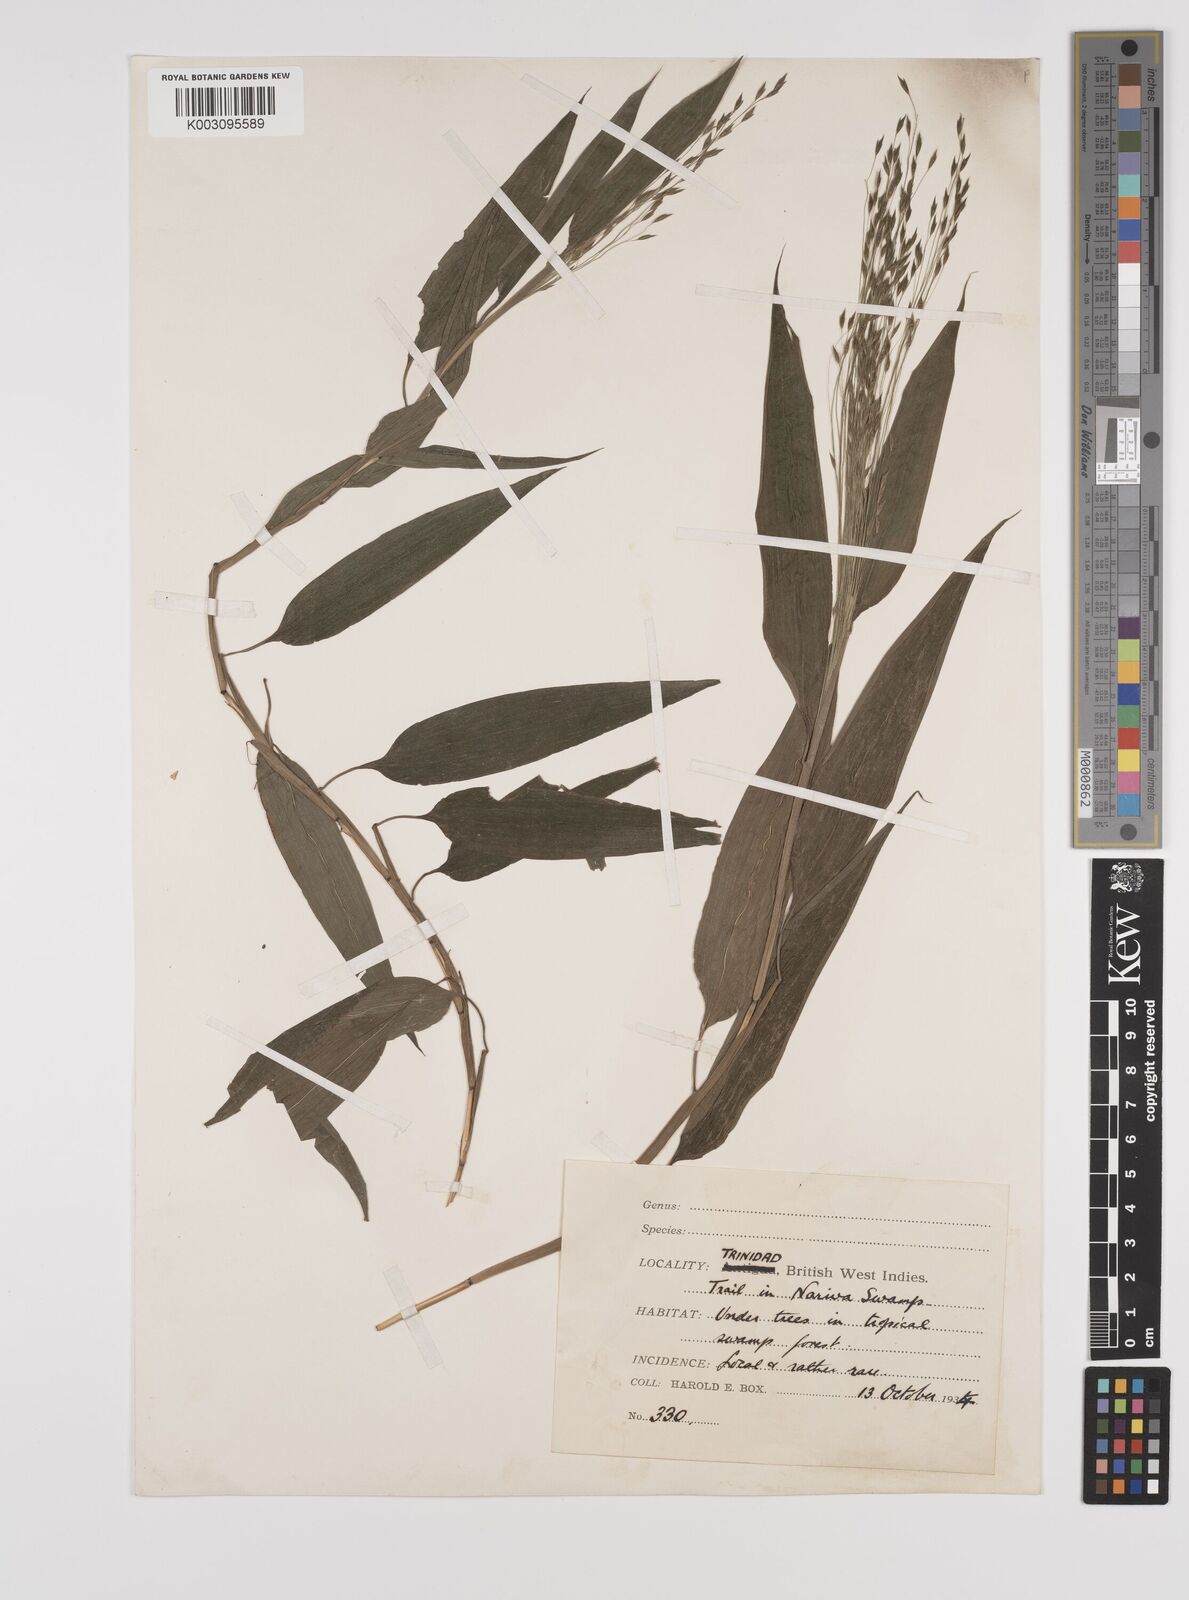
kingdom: Plantae
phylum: Tracheophyta
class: Liliopsida
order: Poales
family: Poaceae
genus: Orthoclada
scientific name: Orthoclada laxa
